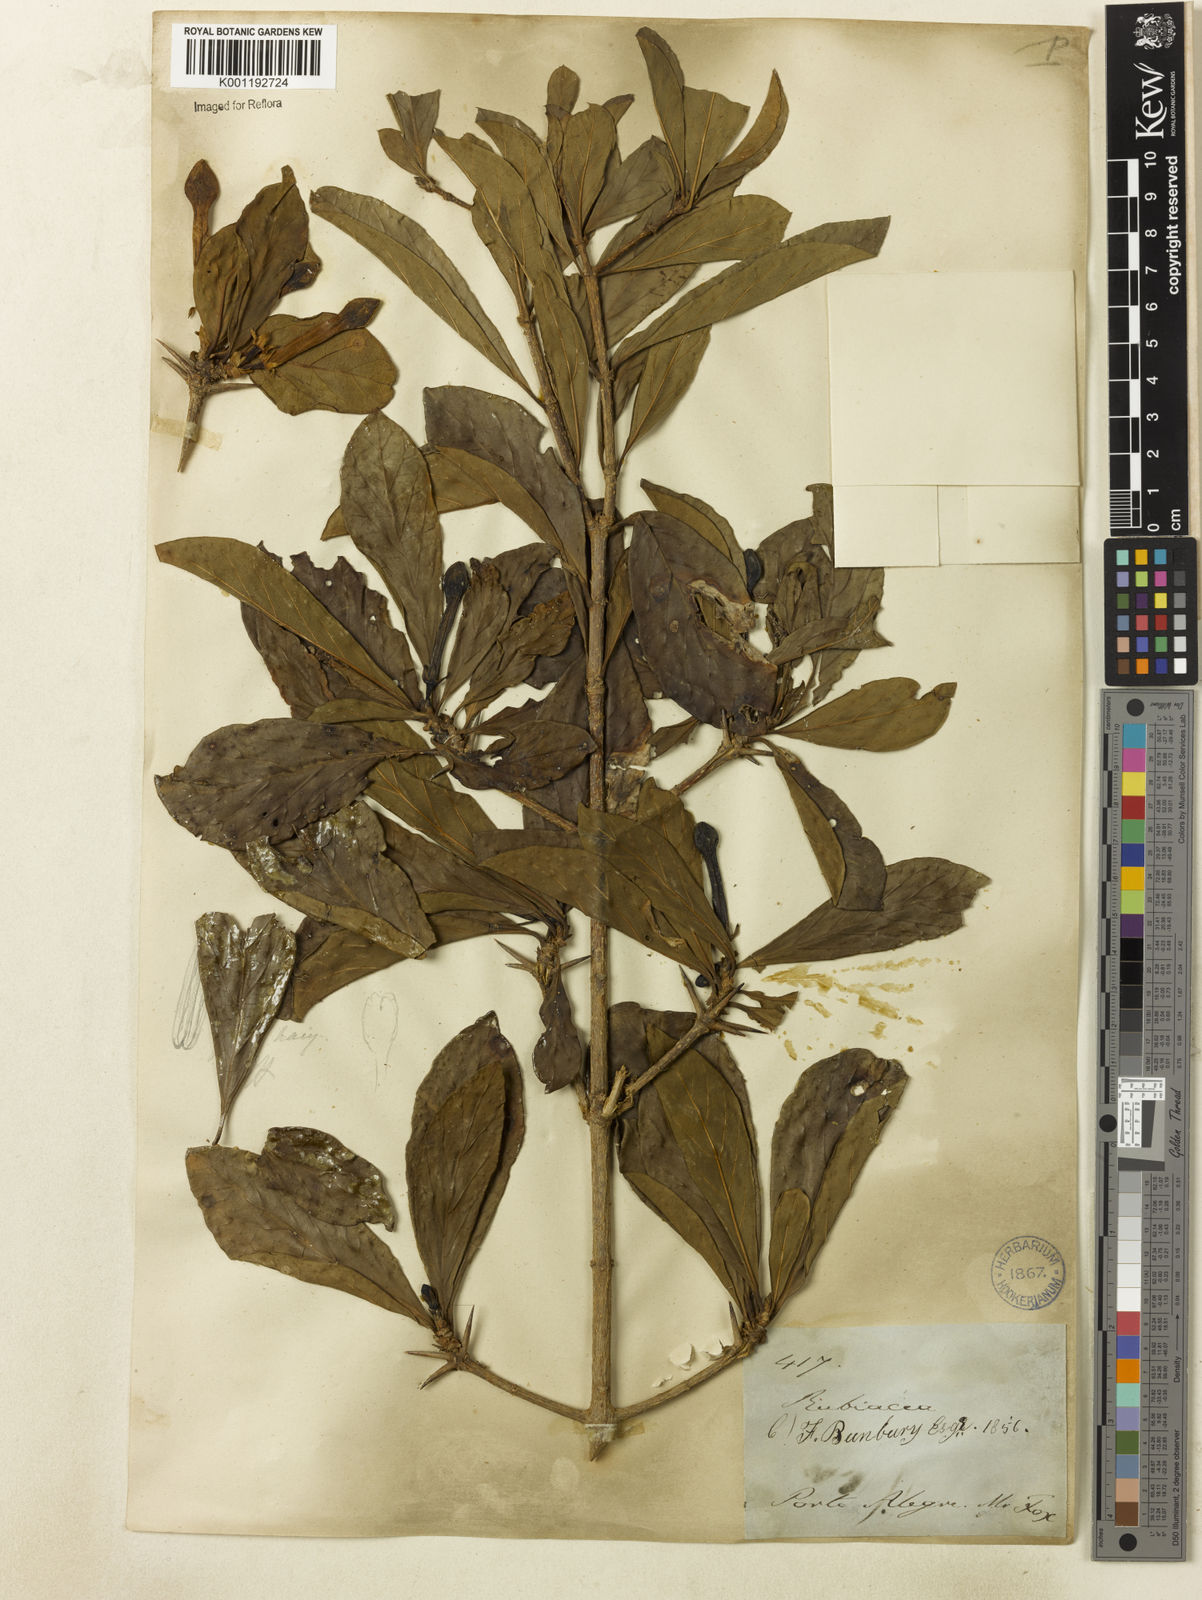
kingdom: Plantae
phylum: Tracheophyta
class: Magnoliopsida
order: Gentianales
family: Rubiaceae
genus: Randia
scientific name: Randia
